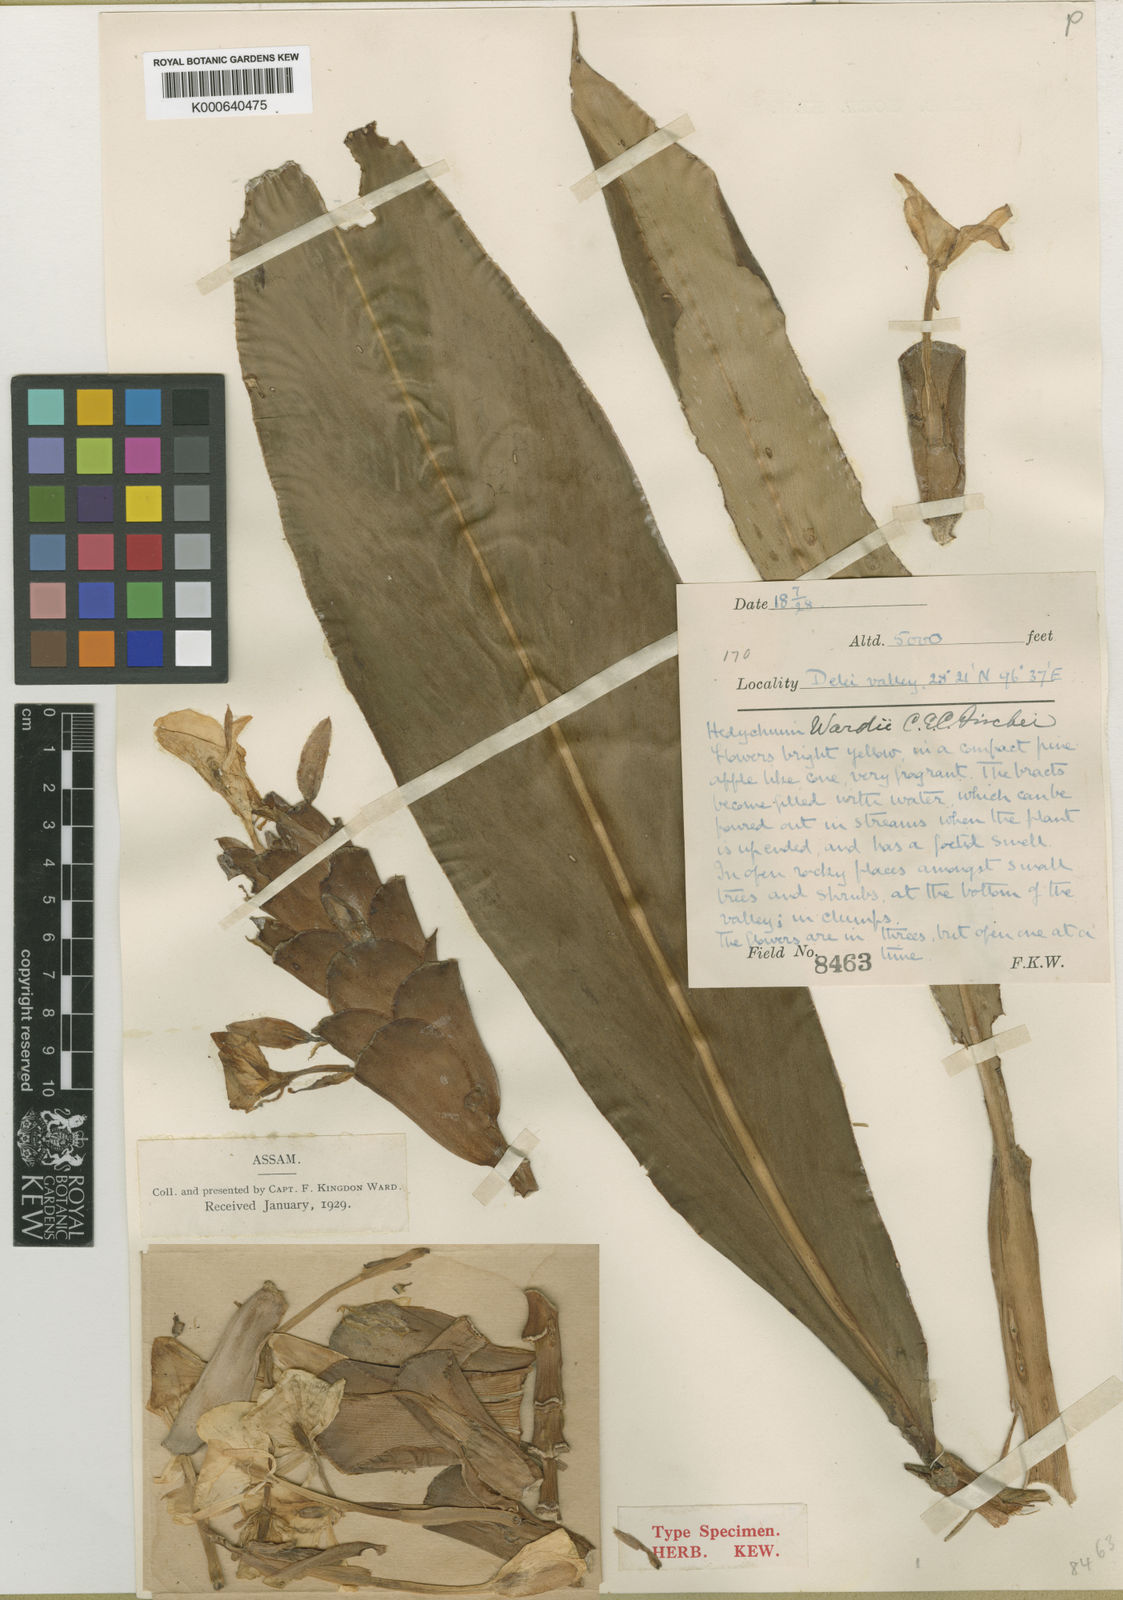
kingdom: Plantae
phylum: Tracheophyta
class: Liliopsida
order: Zingiberales
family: Zingiberaceae
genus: Hedychium
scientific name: Hedychium wardii
